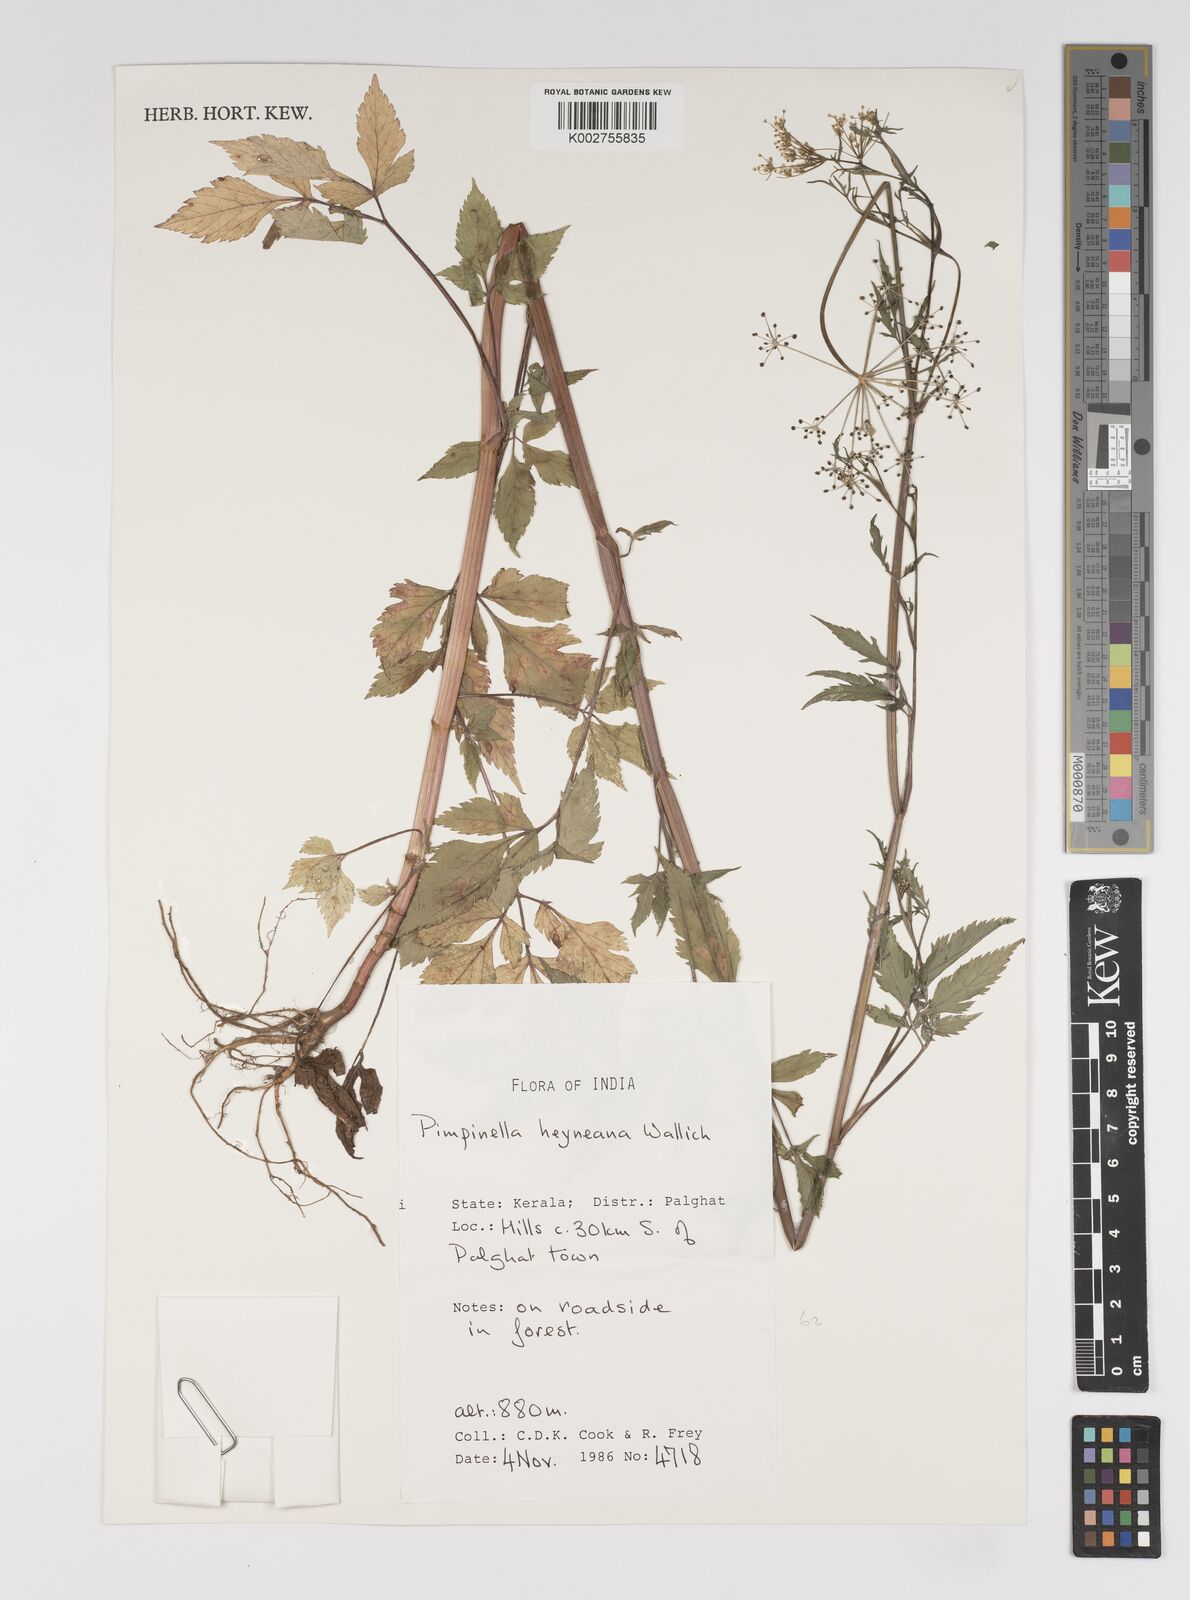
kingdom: Plantae
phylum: Tracheophyta
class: Magnoliopsida
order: Apiales
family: Apiaceae
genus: Pimpinella
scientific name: Pimpinella heyneana
